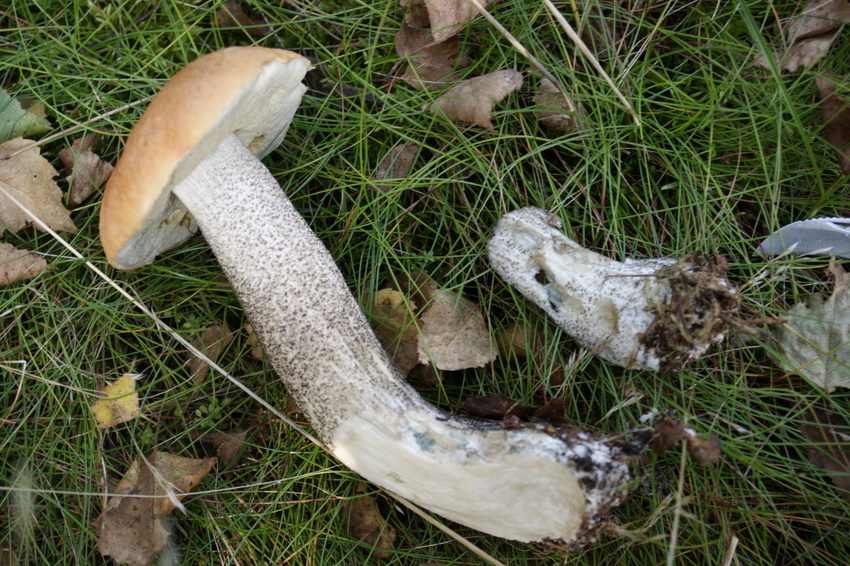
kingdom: Fungi
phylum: Basidiomycota
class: Agaricomycetes
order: Boletales
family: Boletaceae
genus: Leccinum
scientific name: Leccinum versipelle
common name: orange skælrørhat
